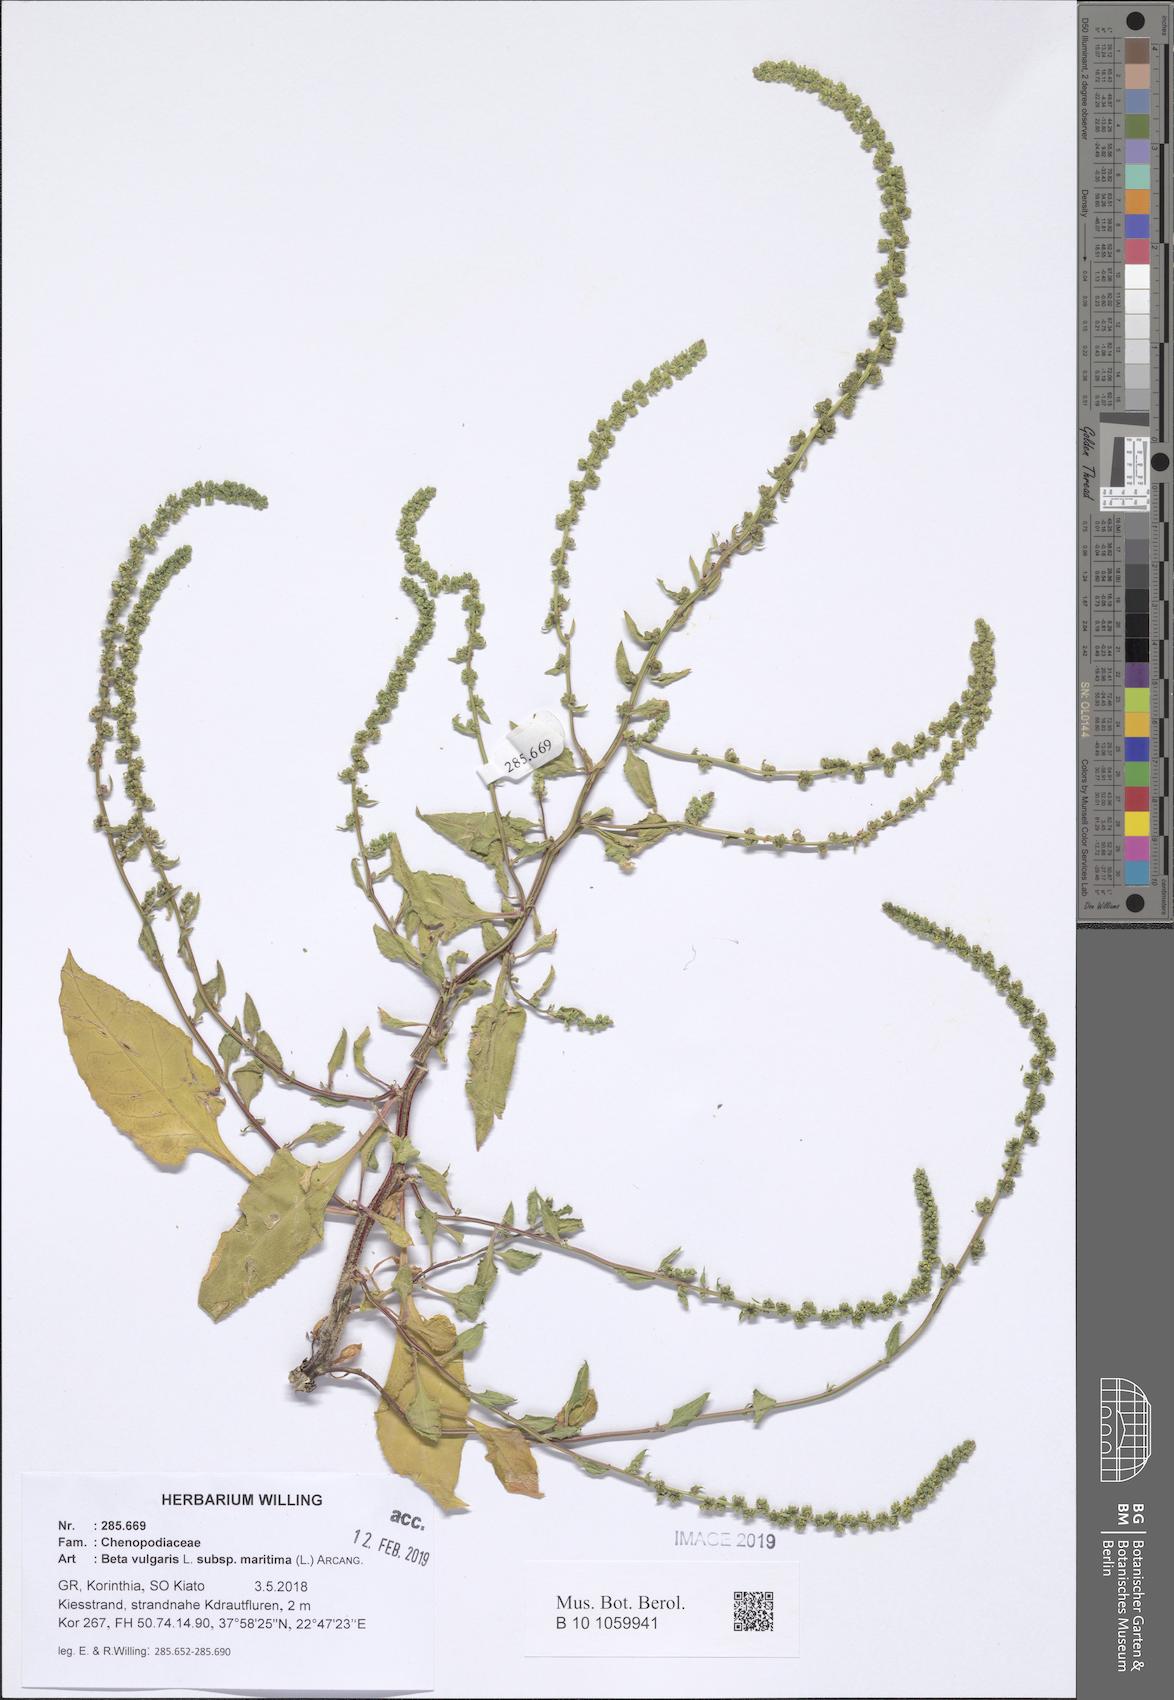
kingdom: Plantae
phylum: Tracheophyta
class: Magnoliopsida
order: Caryophyllales
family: Amaranthaceae
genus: Beta
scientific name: Beta maritima
